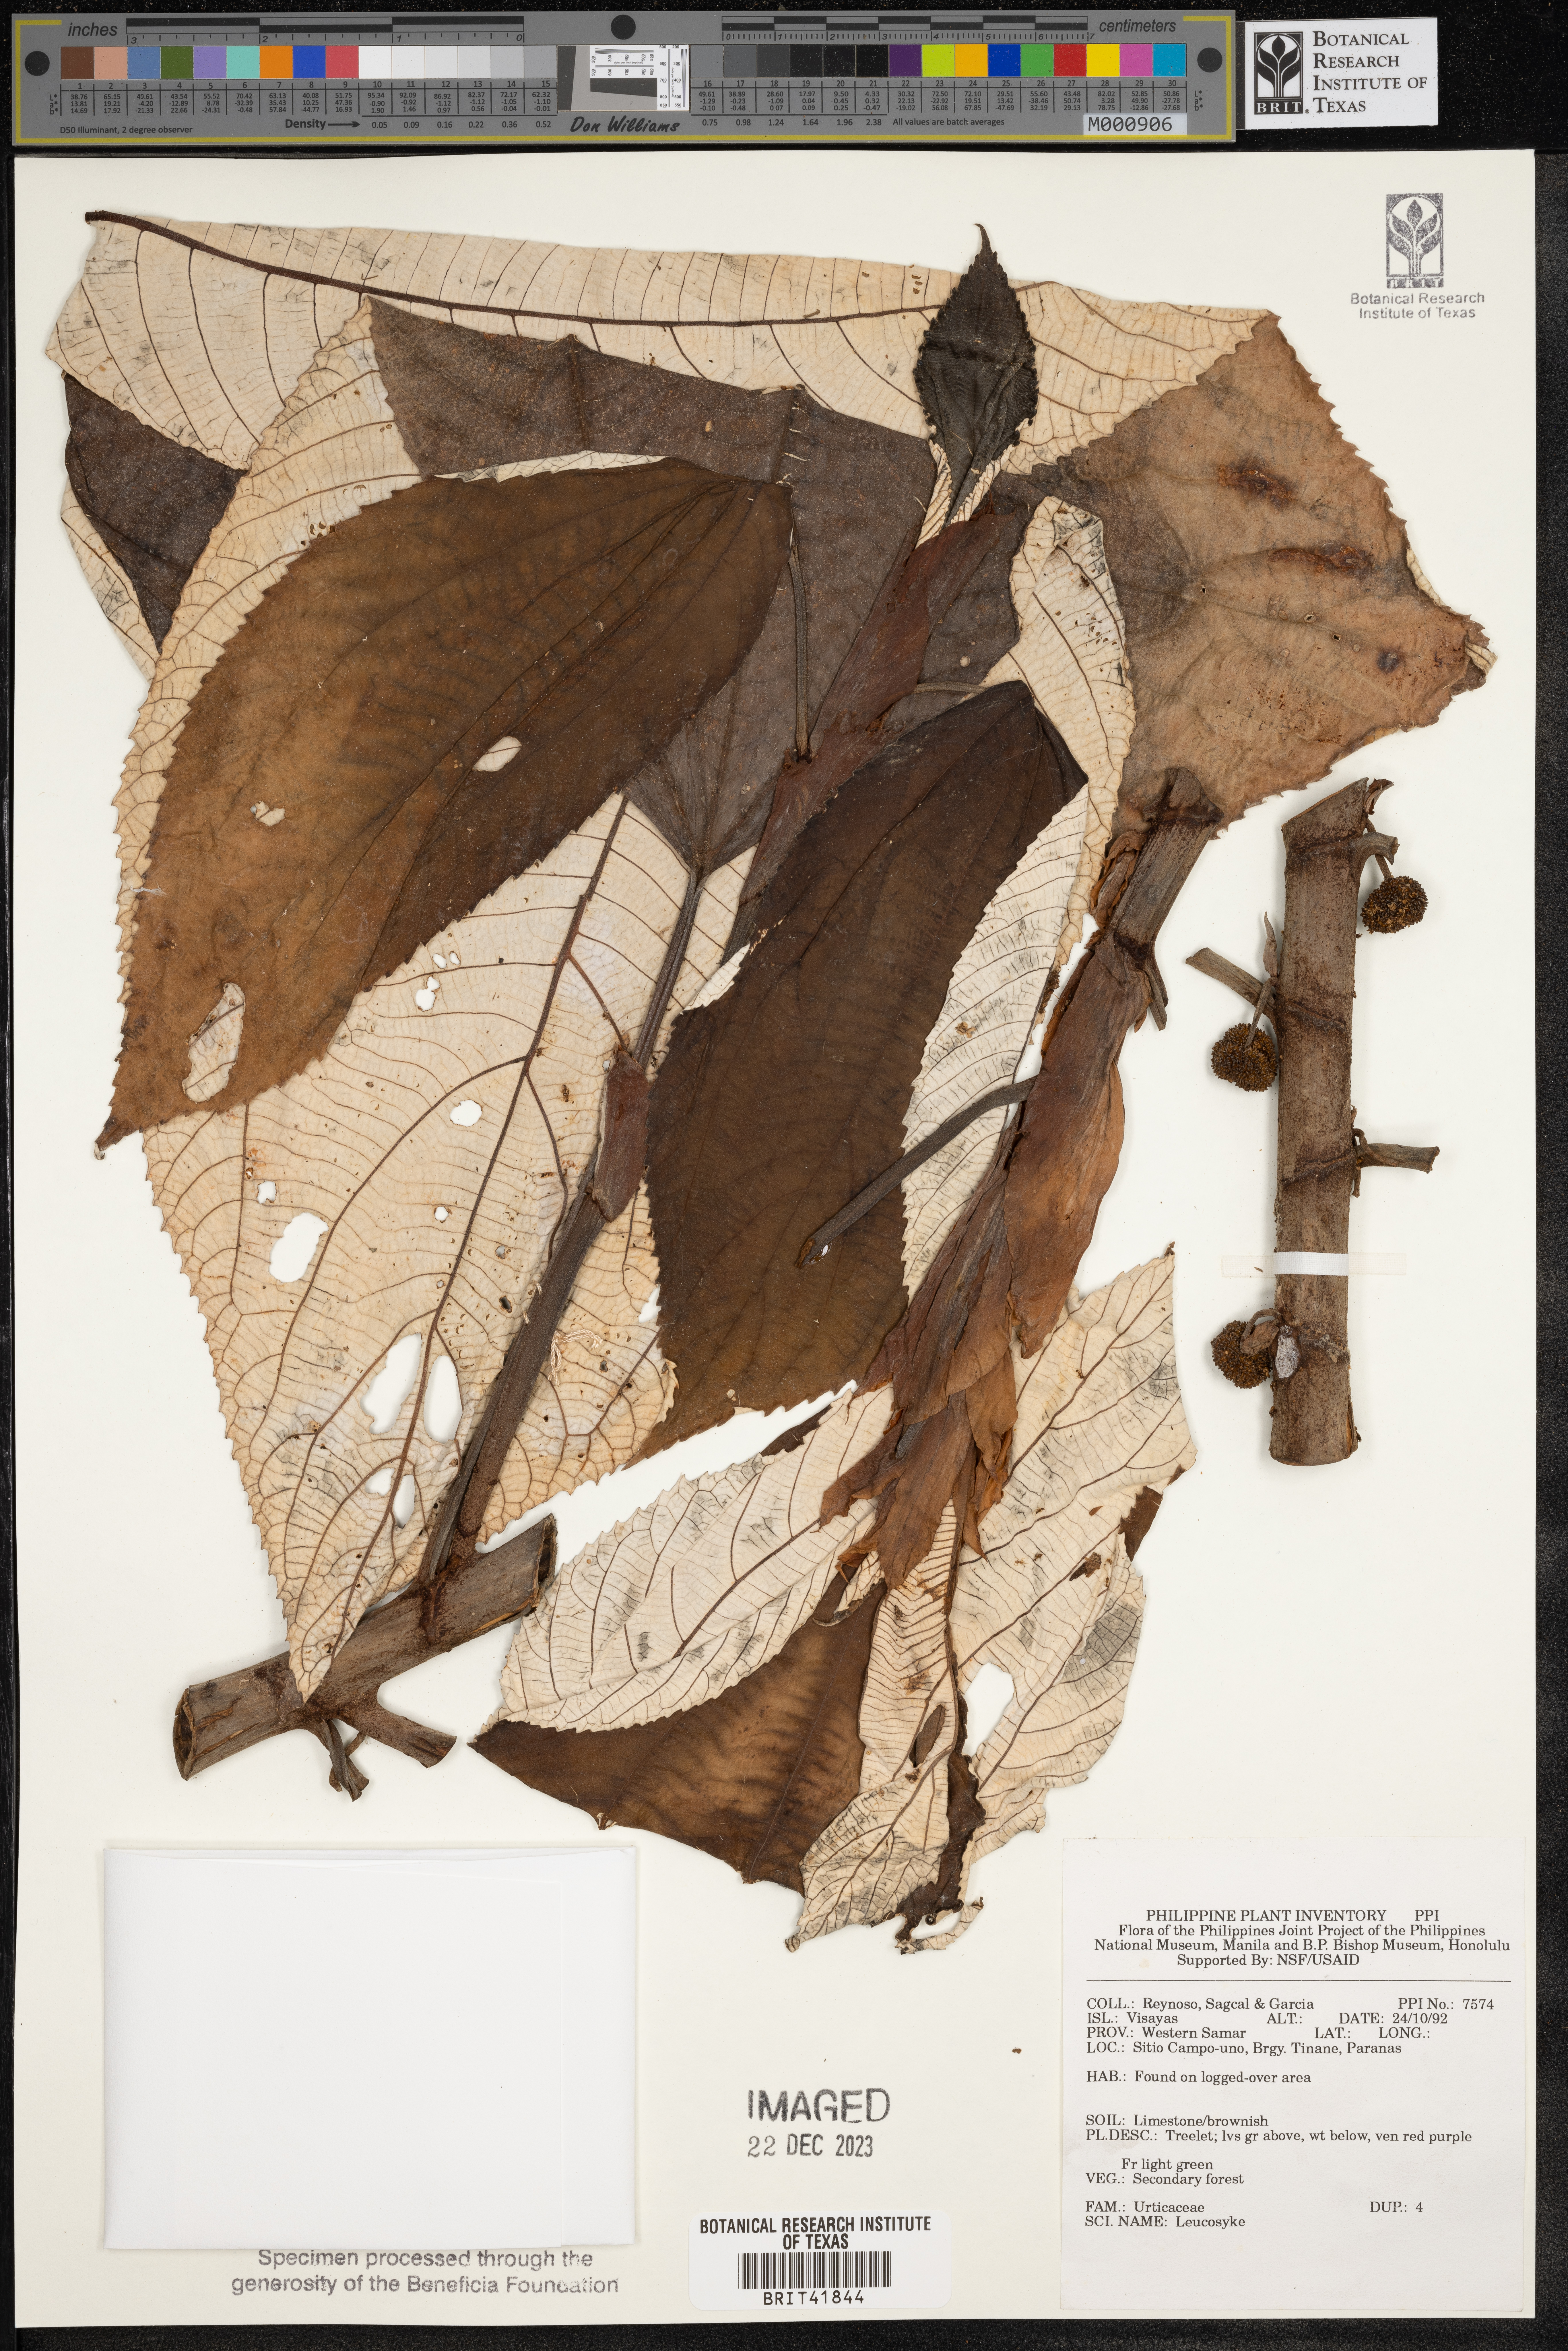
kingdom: Plantae
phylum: Tracheophyta
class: Magnoliopsida
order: Rosales
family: Urticaceae
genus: Leucosyke
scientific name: Leucosyke
